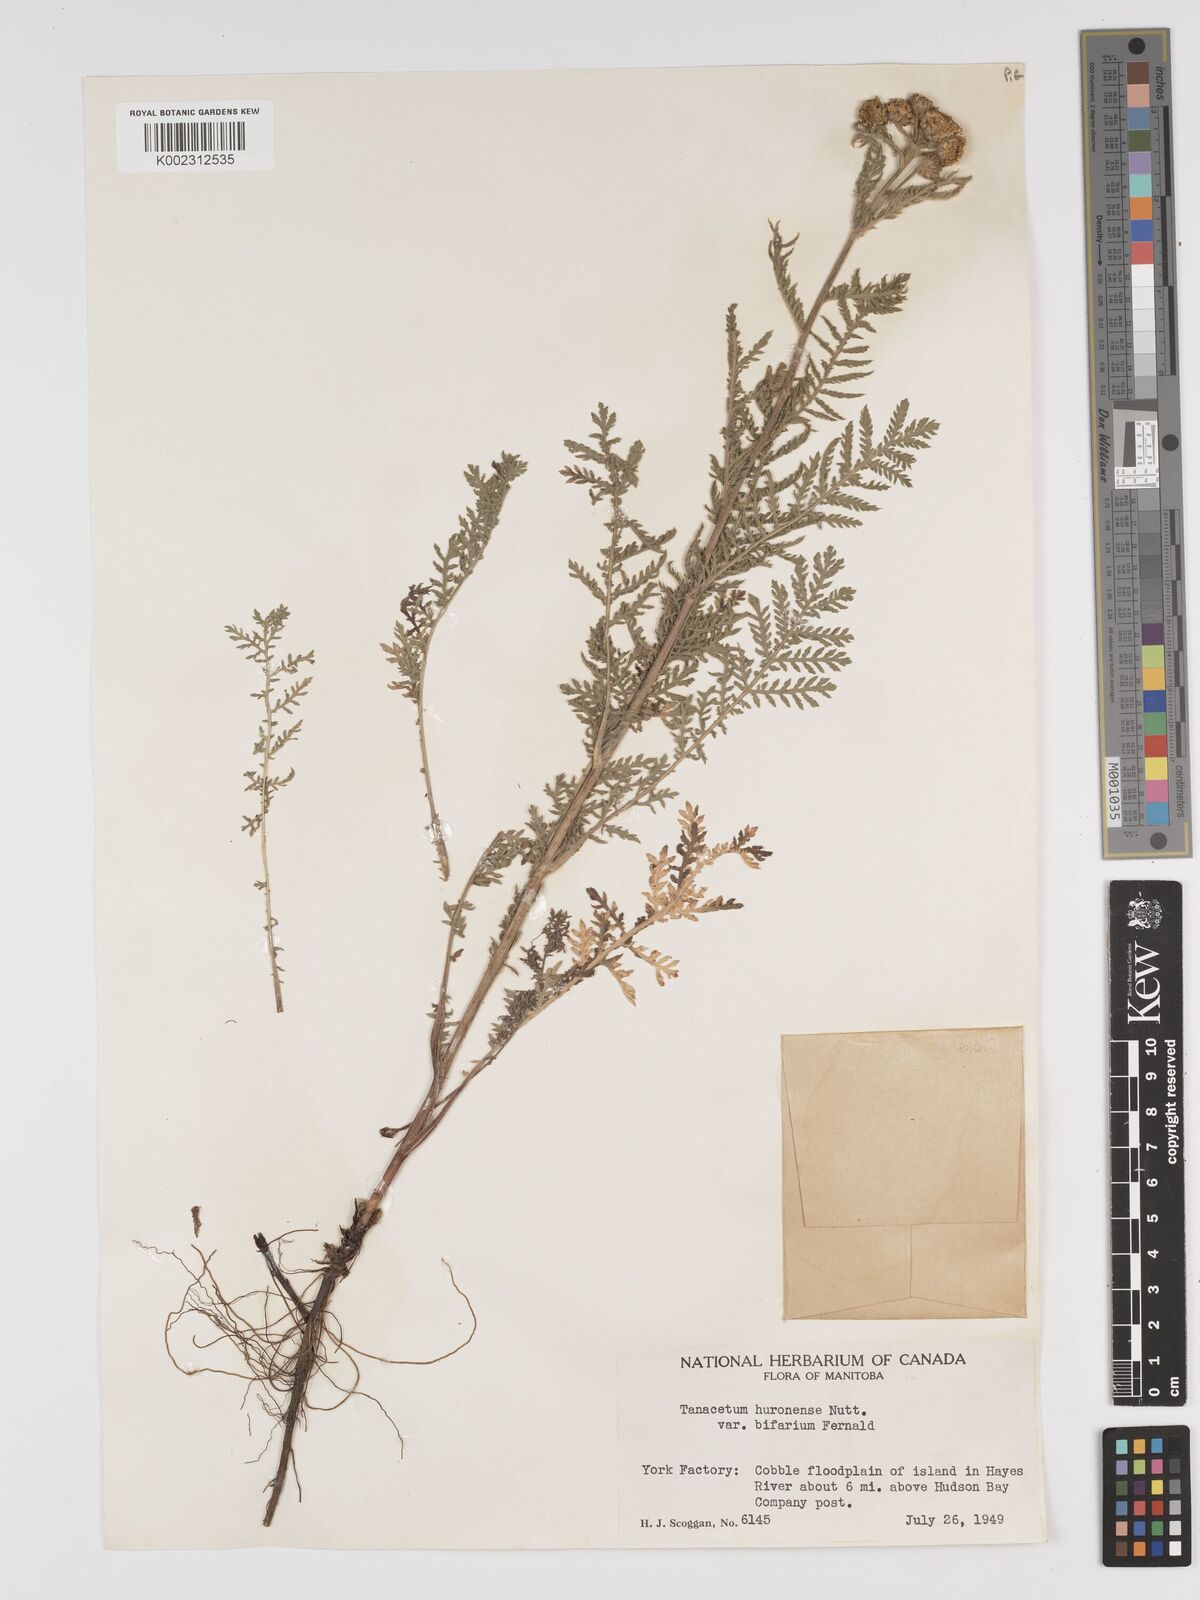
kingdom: Plantae
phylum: Tracheophyta
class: Magnoliopsida
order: Asterales
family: Asteraceae
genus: Tanacetum
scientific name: Tanacetum bipinnatum
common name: Dwarf tansy
